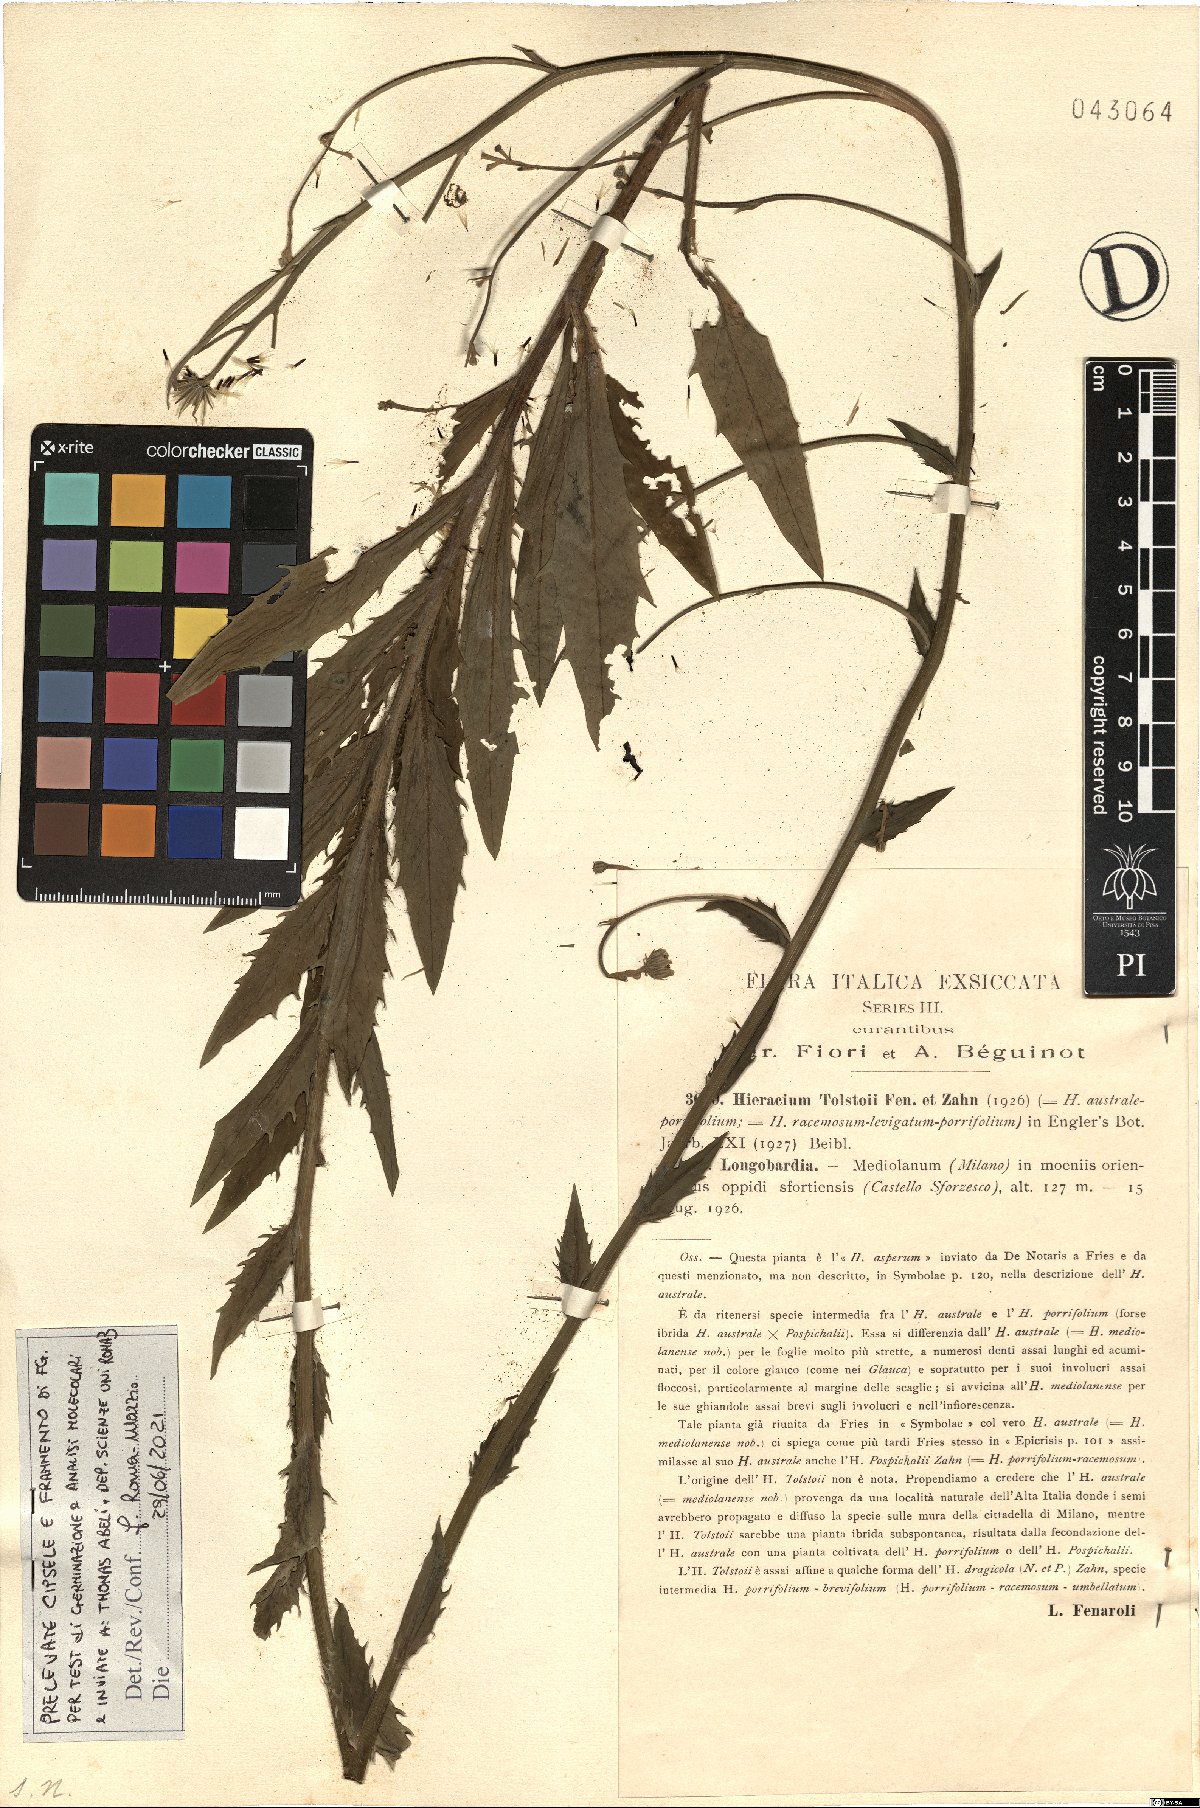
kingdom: Plantae
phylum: Tracheophyta
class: Magnoliopsida
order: Asterales
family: Asteraceae
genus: Hieracium
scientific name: Hieracium tolstoii
